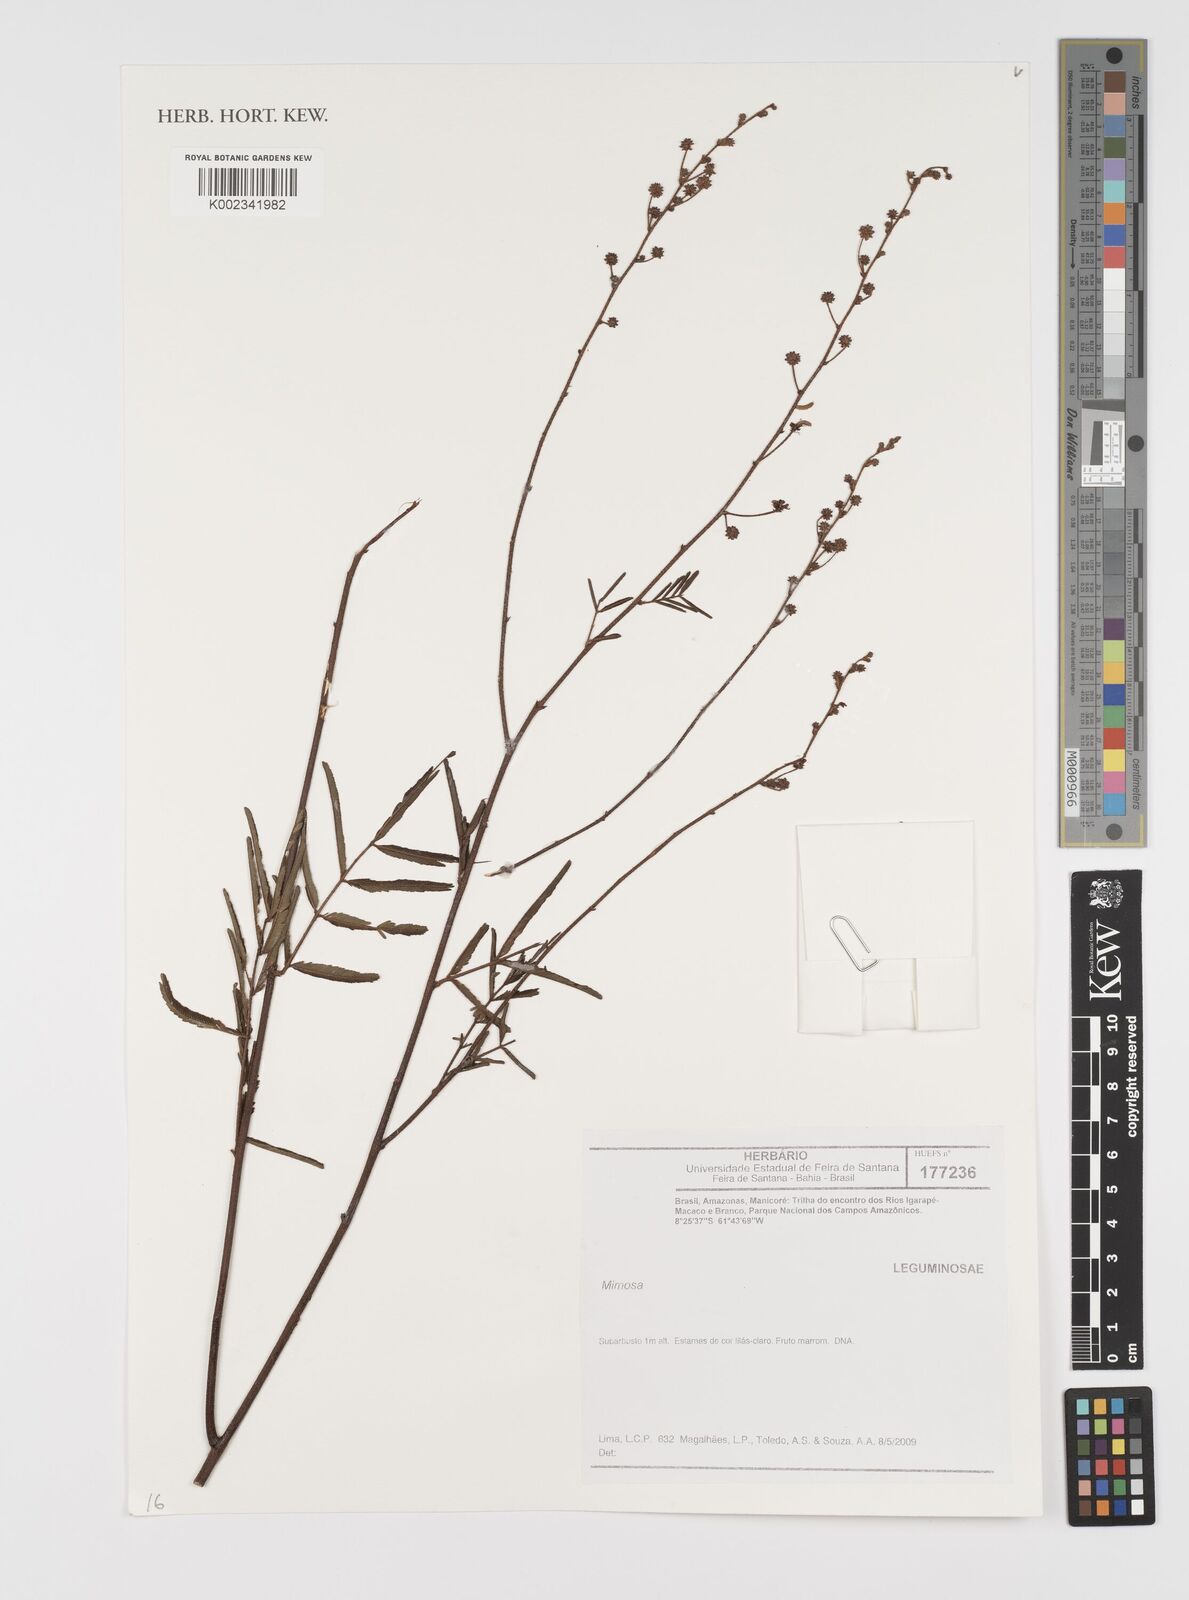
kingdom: Plantae
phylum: Tracheophyta
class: Magnoliopsida
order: Fabales
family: Fabaceae
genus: Mimosa
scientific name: Mimosa
